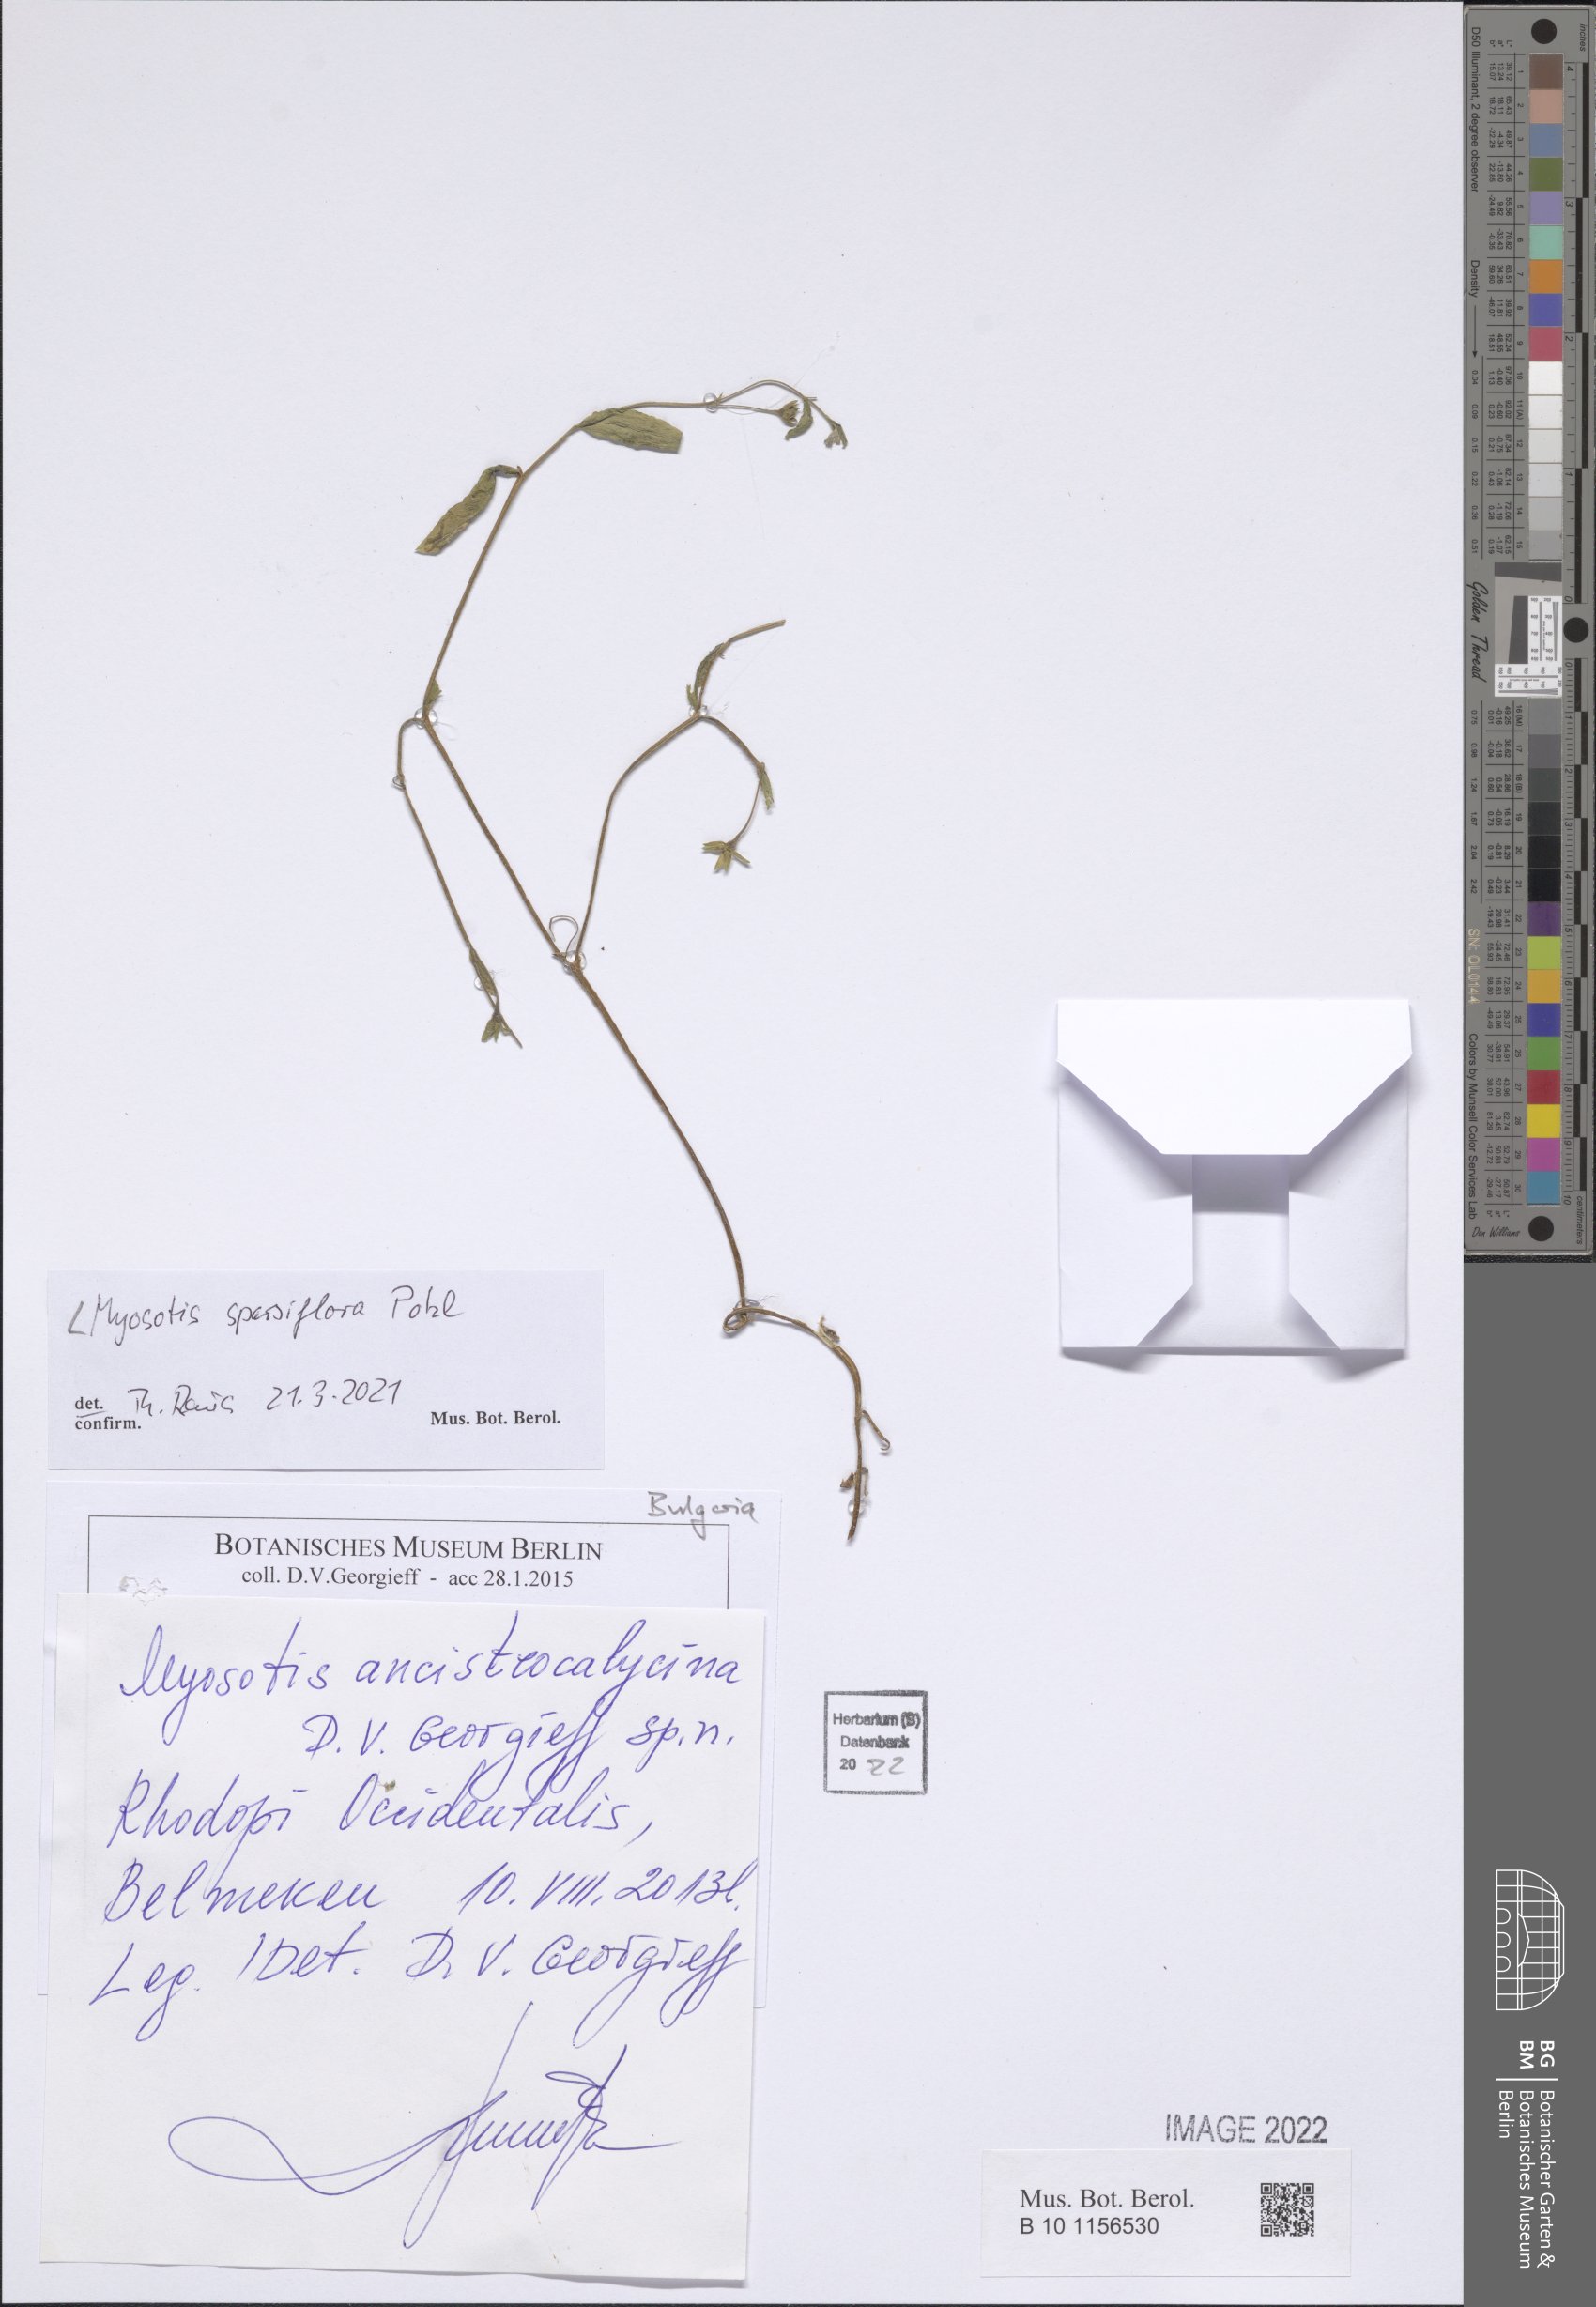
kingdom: Plantae
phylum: Tracheophyta
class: Magnoliopsida
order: Boraginales
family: Boraginaceae
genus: Myosotis
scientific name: Myosotis sparsiflora
